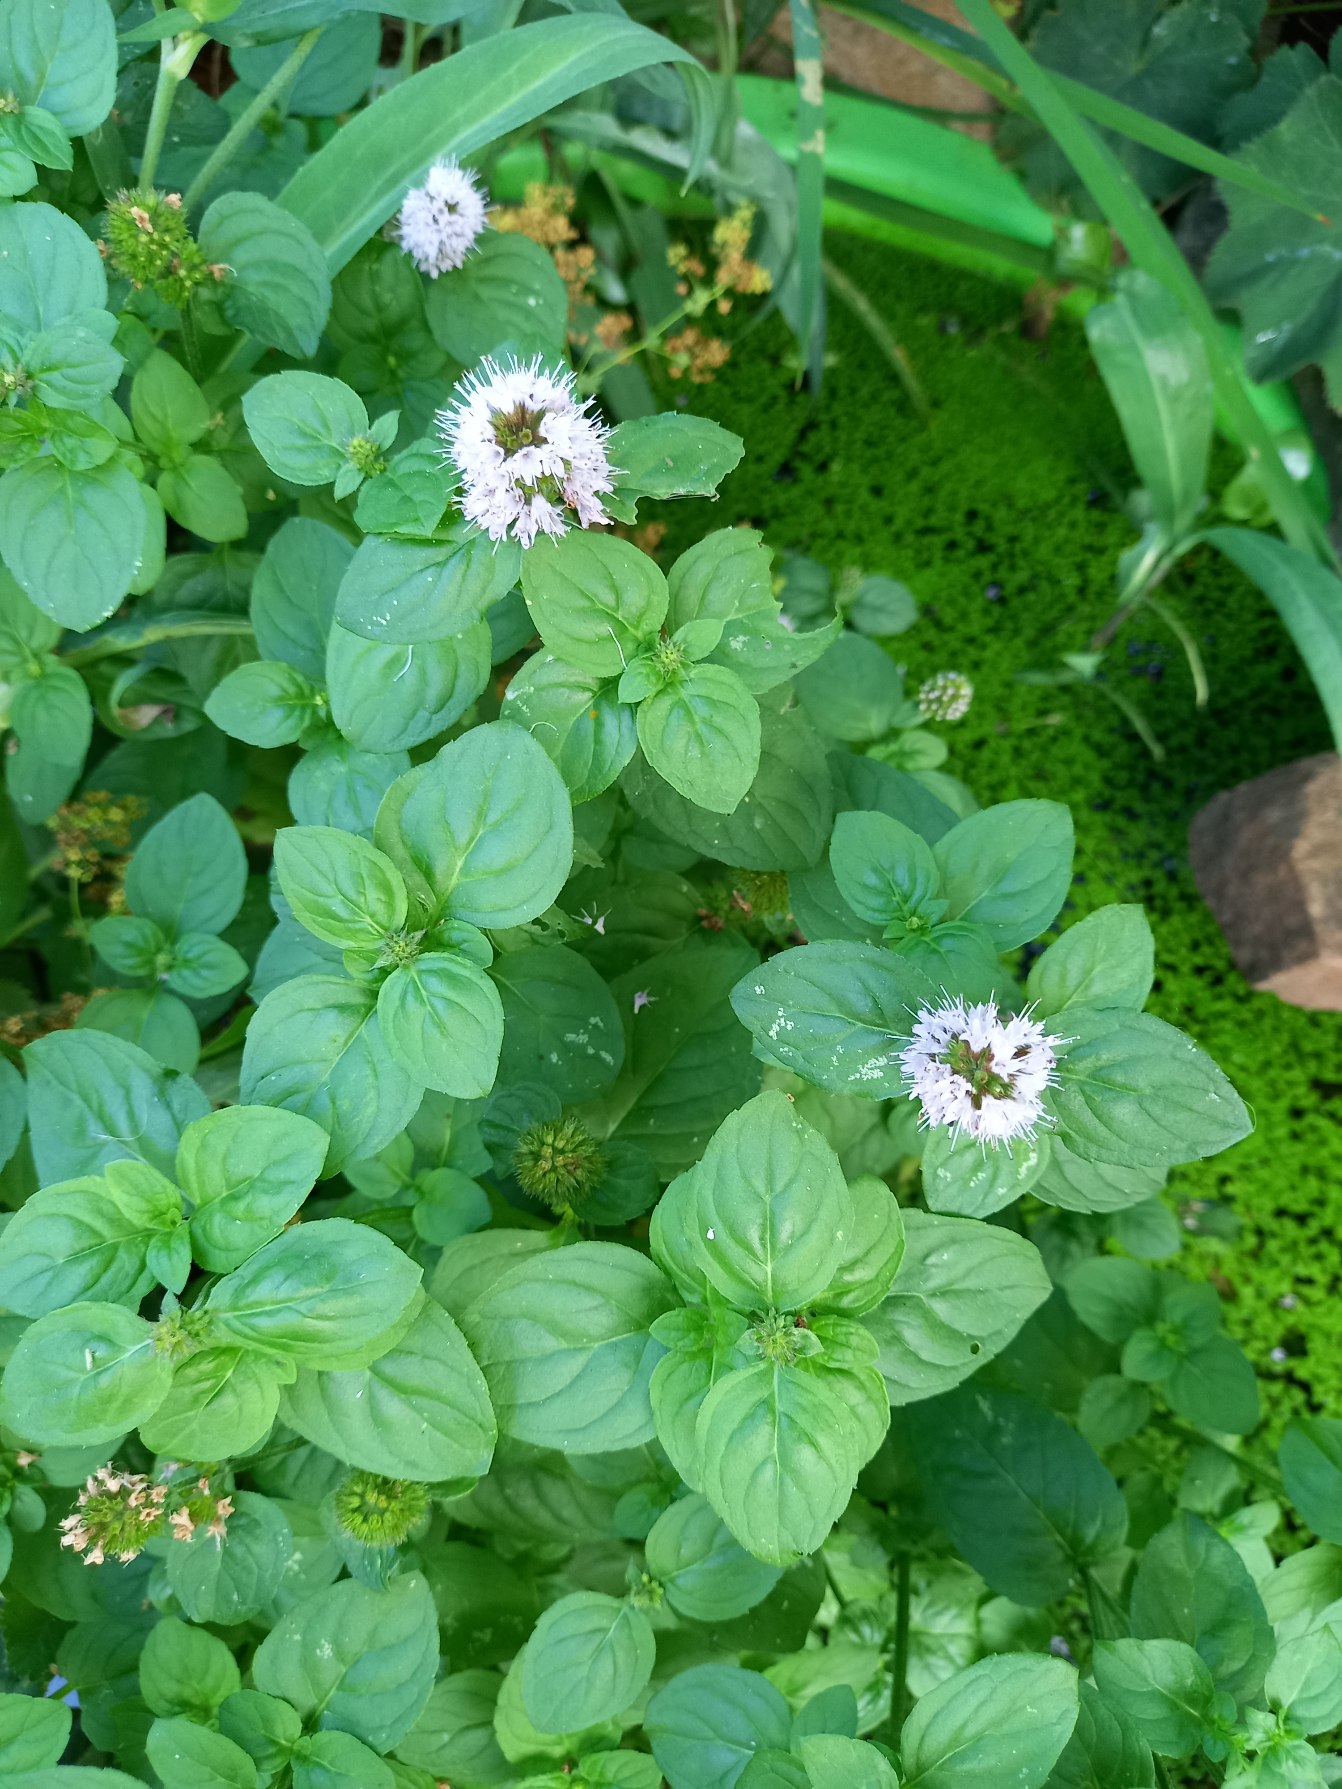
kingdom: Plantae
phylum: Tracheophyta
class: Magnoliopsida
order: Lamiales
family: Lamiaceae
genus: Mentha
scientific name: Mentha aquatica
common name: Vand-mynte
